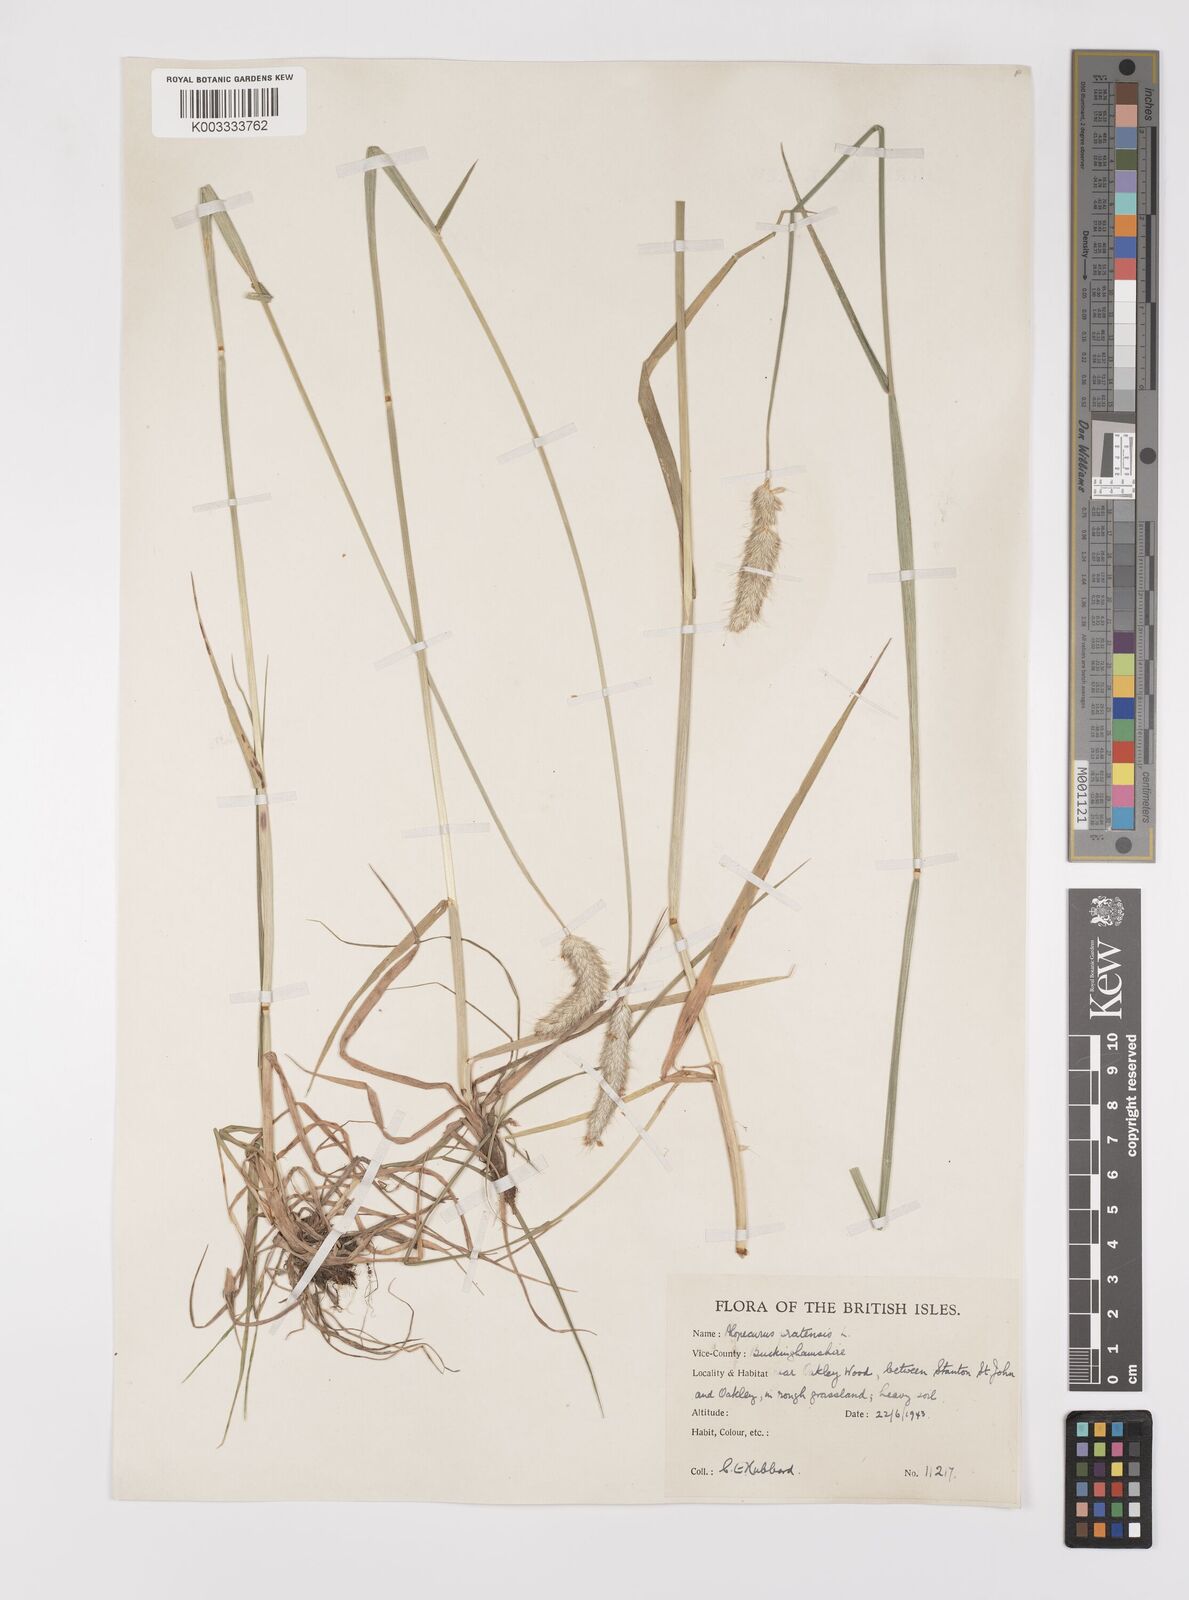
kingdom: Plantae
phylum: Tracheophyta
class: Liliopsida
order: Poales
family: Poaceae
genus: Alopecurus
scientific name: Alopecurus pratensis
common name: Meadow foxtail
